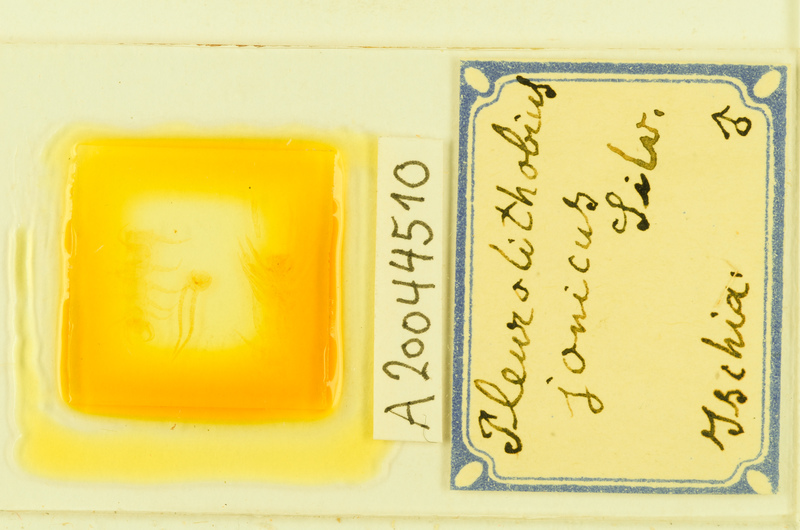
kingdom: Animalia
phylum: Arthropoda
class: Chilopoda
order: Lithobiomorpha
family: Lithobiidae
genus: Pleurolithobius
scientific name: Pleurolithobius
